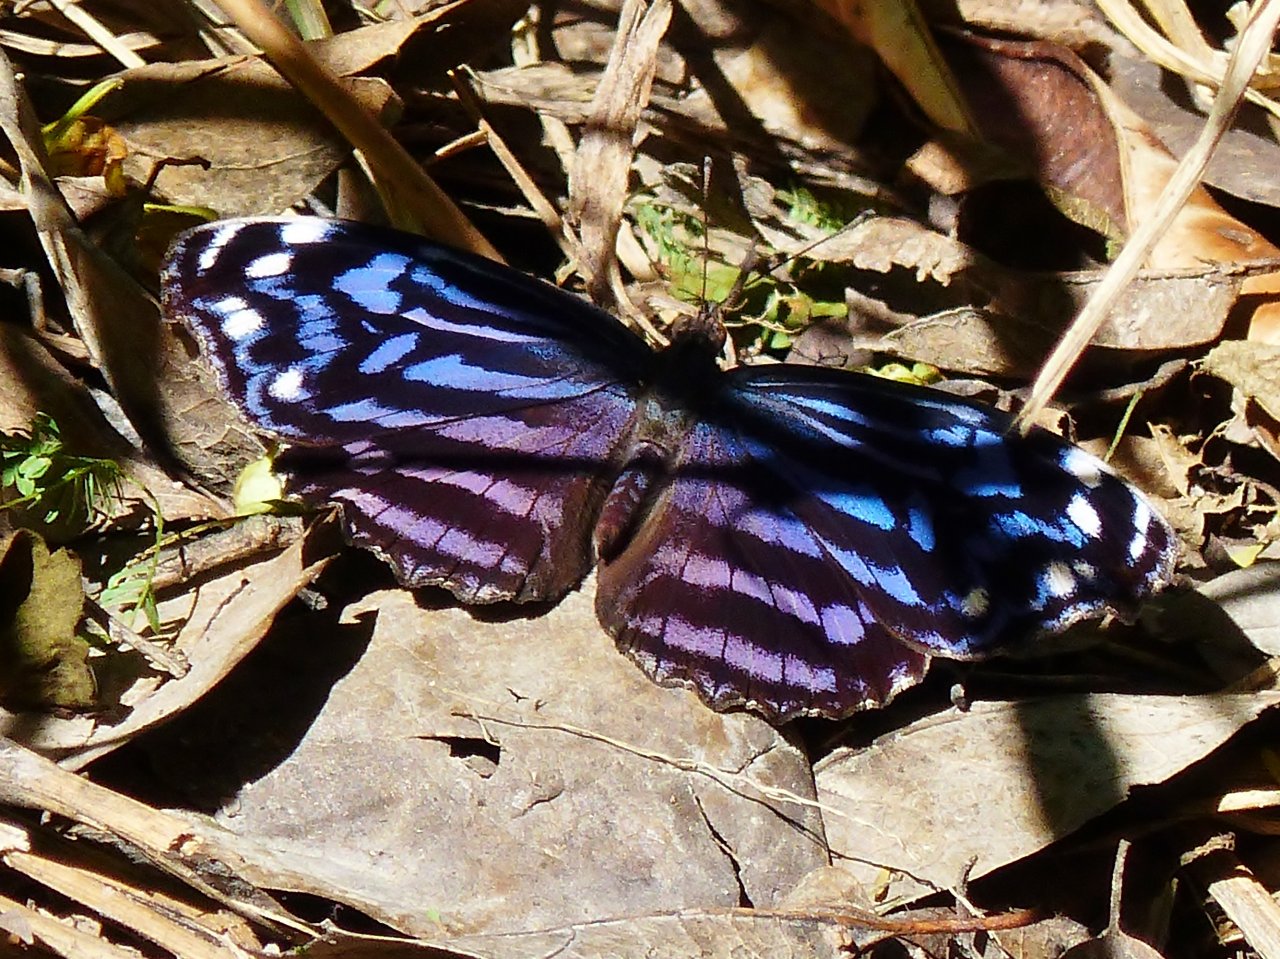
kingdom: Animalia
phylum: Arthropoda
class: Insecta
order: Lepidoptera
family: Nymphalidae
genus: Myscelia
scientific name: Myscelia ethusa
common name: Mexican Bluewing
